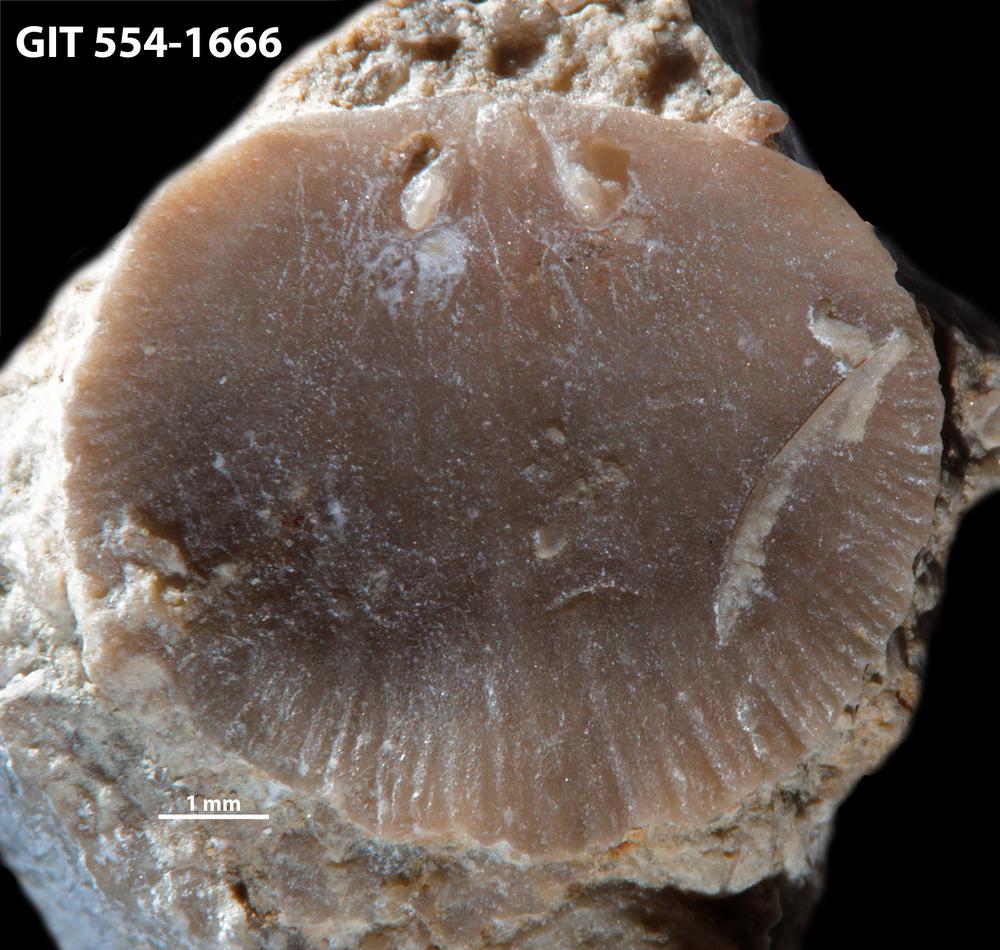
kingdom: Animalia
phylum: Brachiopoda
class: Rhynchonellata
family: Rhipidomellidae
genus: Mendacella
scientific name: Mendacella circularis
